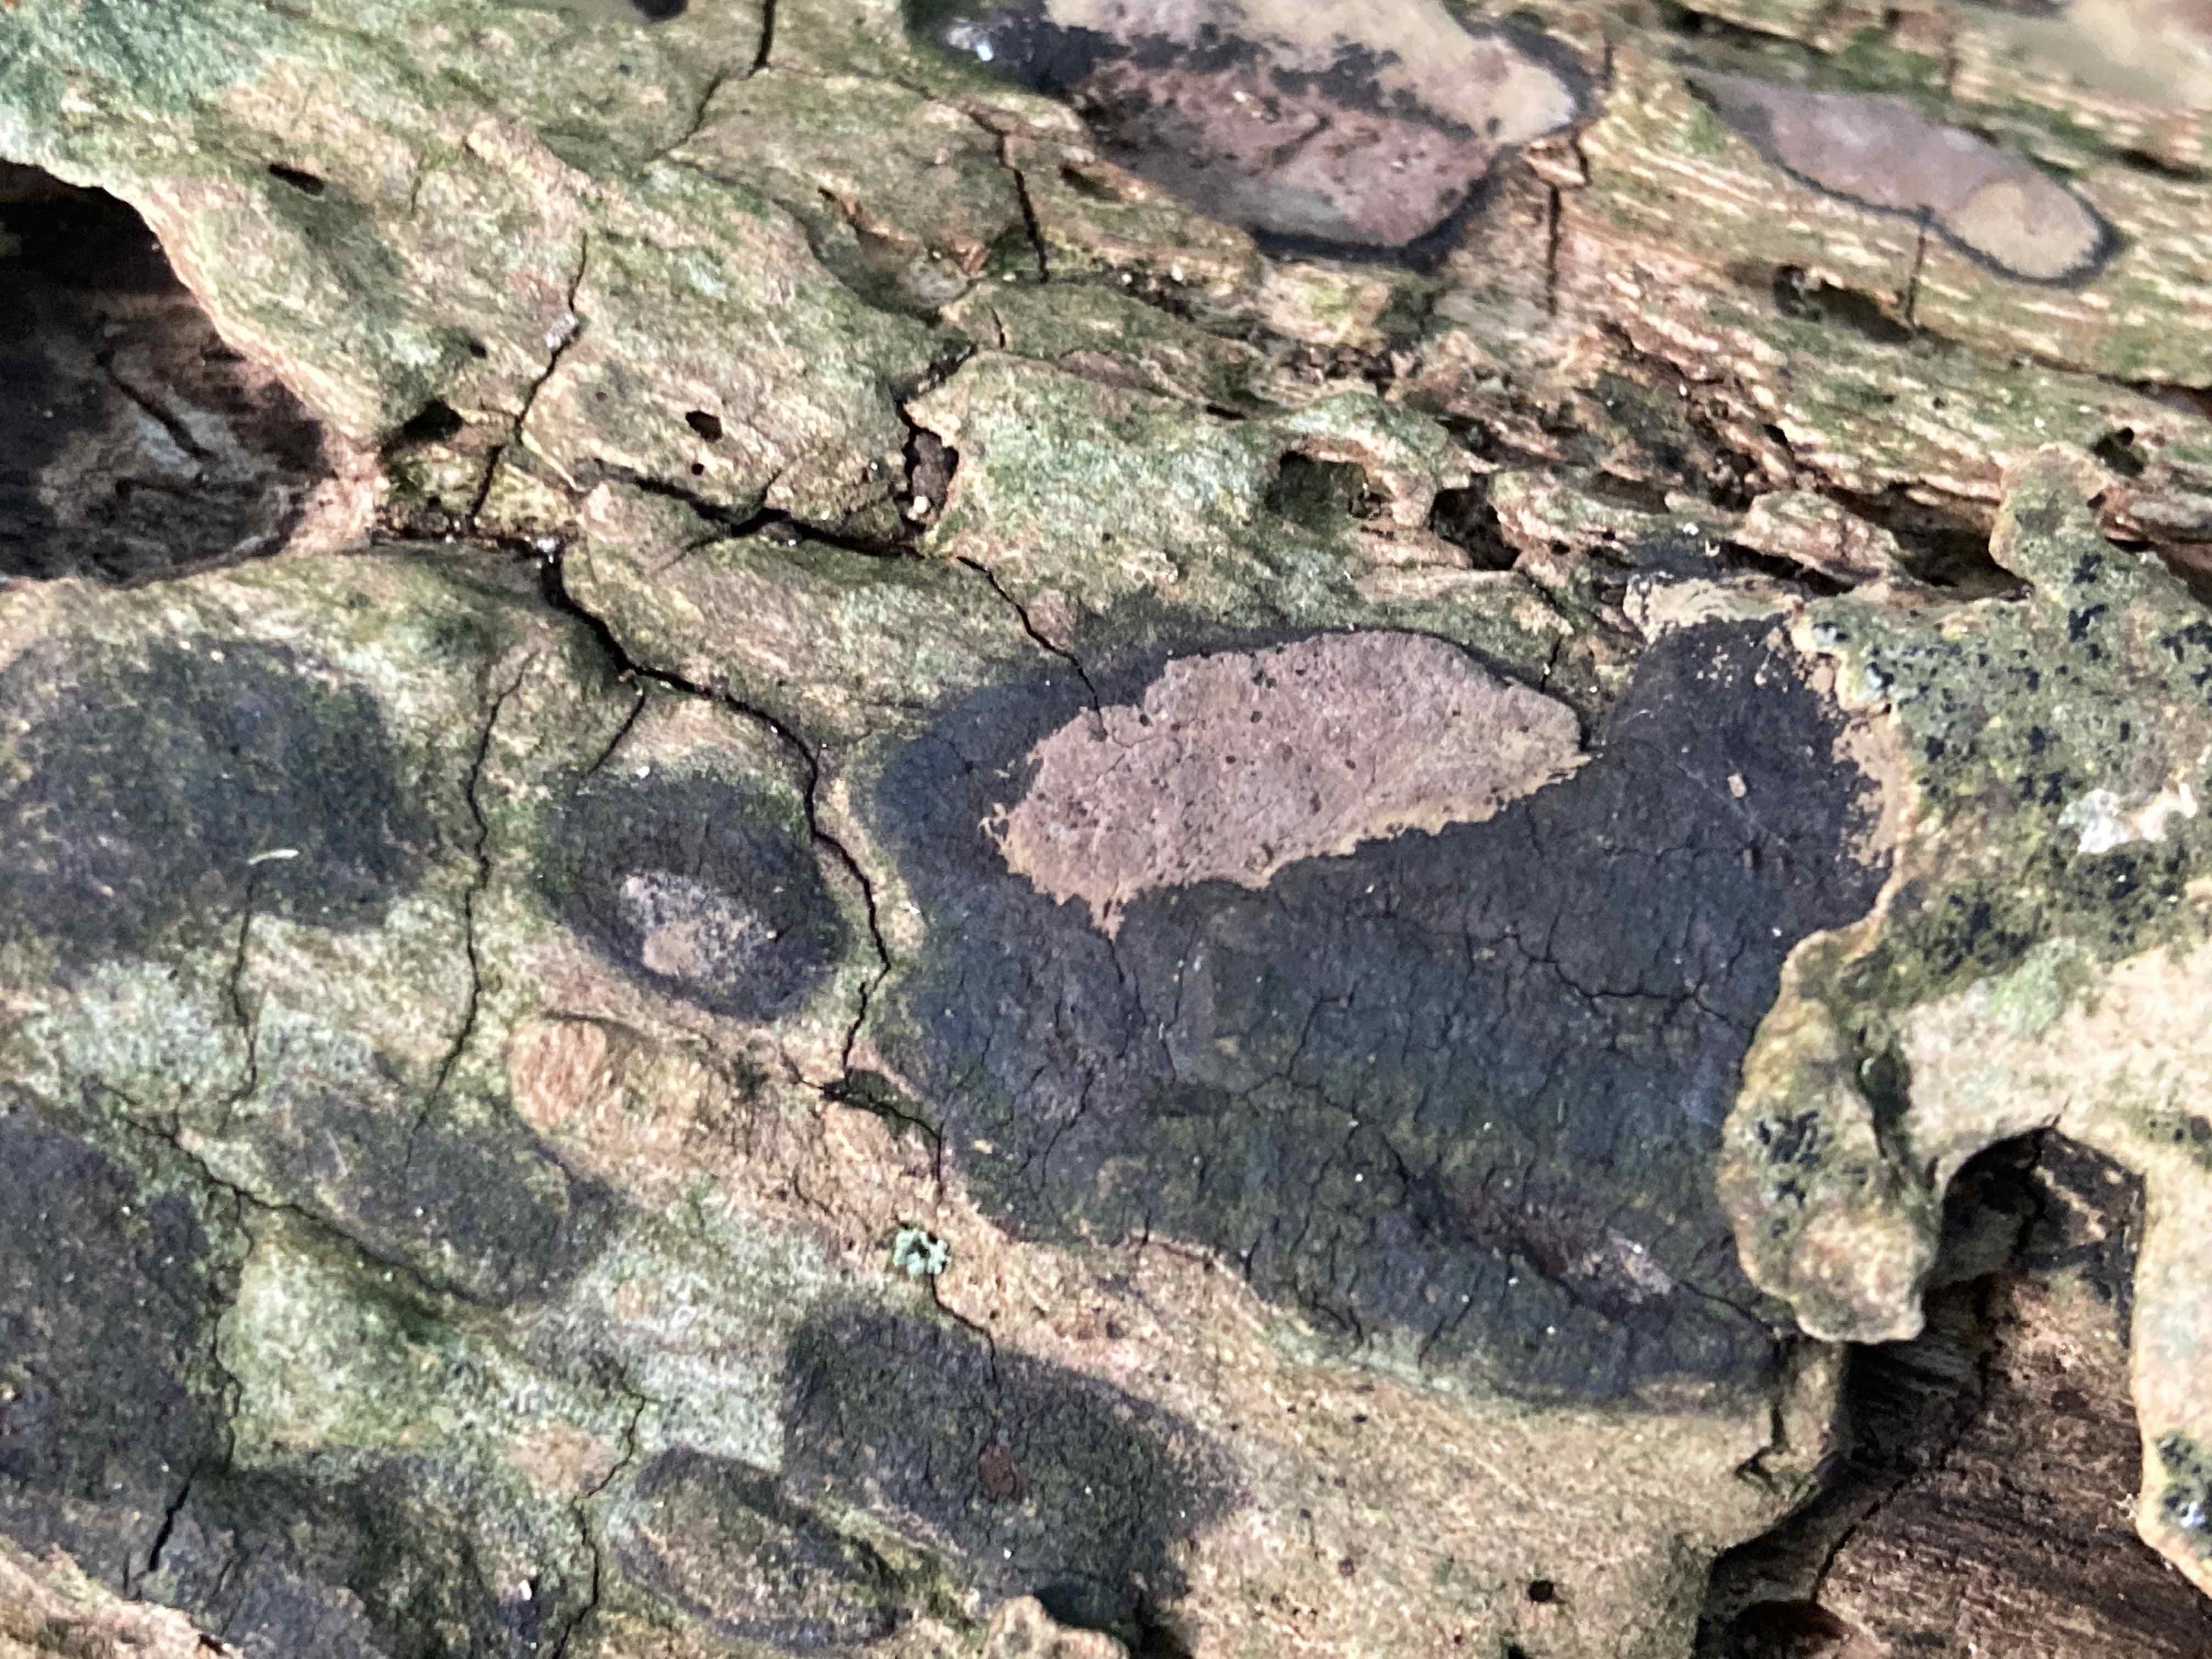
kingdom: Fungi
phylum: Ascomycota
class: Sordariomycetes
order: Xylariales
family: Hypoxylaceae
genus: Hypoxylon
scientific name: Hypoxylon petriniae
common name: nedsænket kulbær
